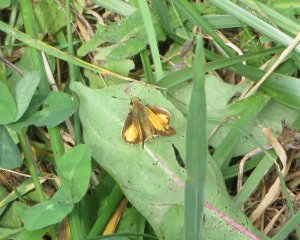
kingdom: Animalia
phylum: Arthropoda
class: Insecta
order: Lepidoptera
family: Hesperiidae
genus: Lon
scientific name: Lon zabulon
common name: Zabulon Skipper
